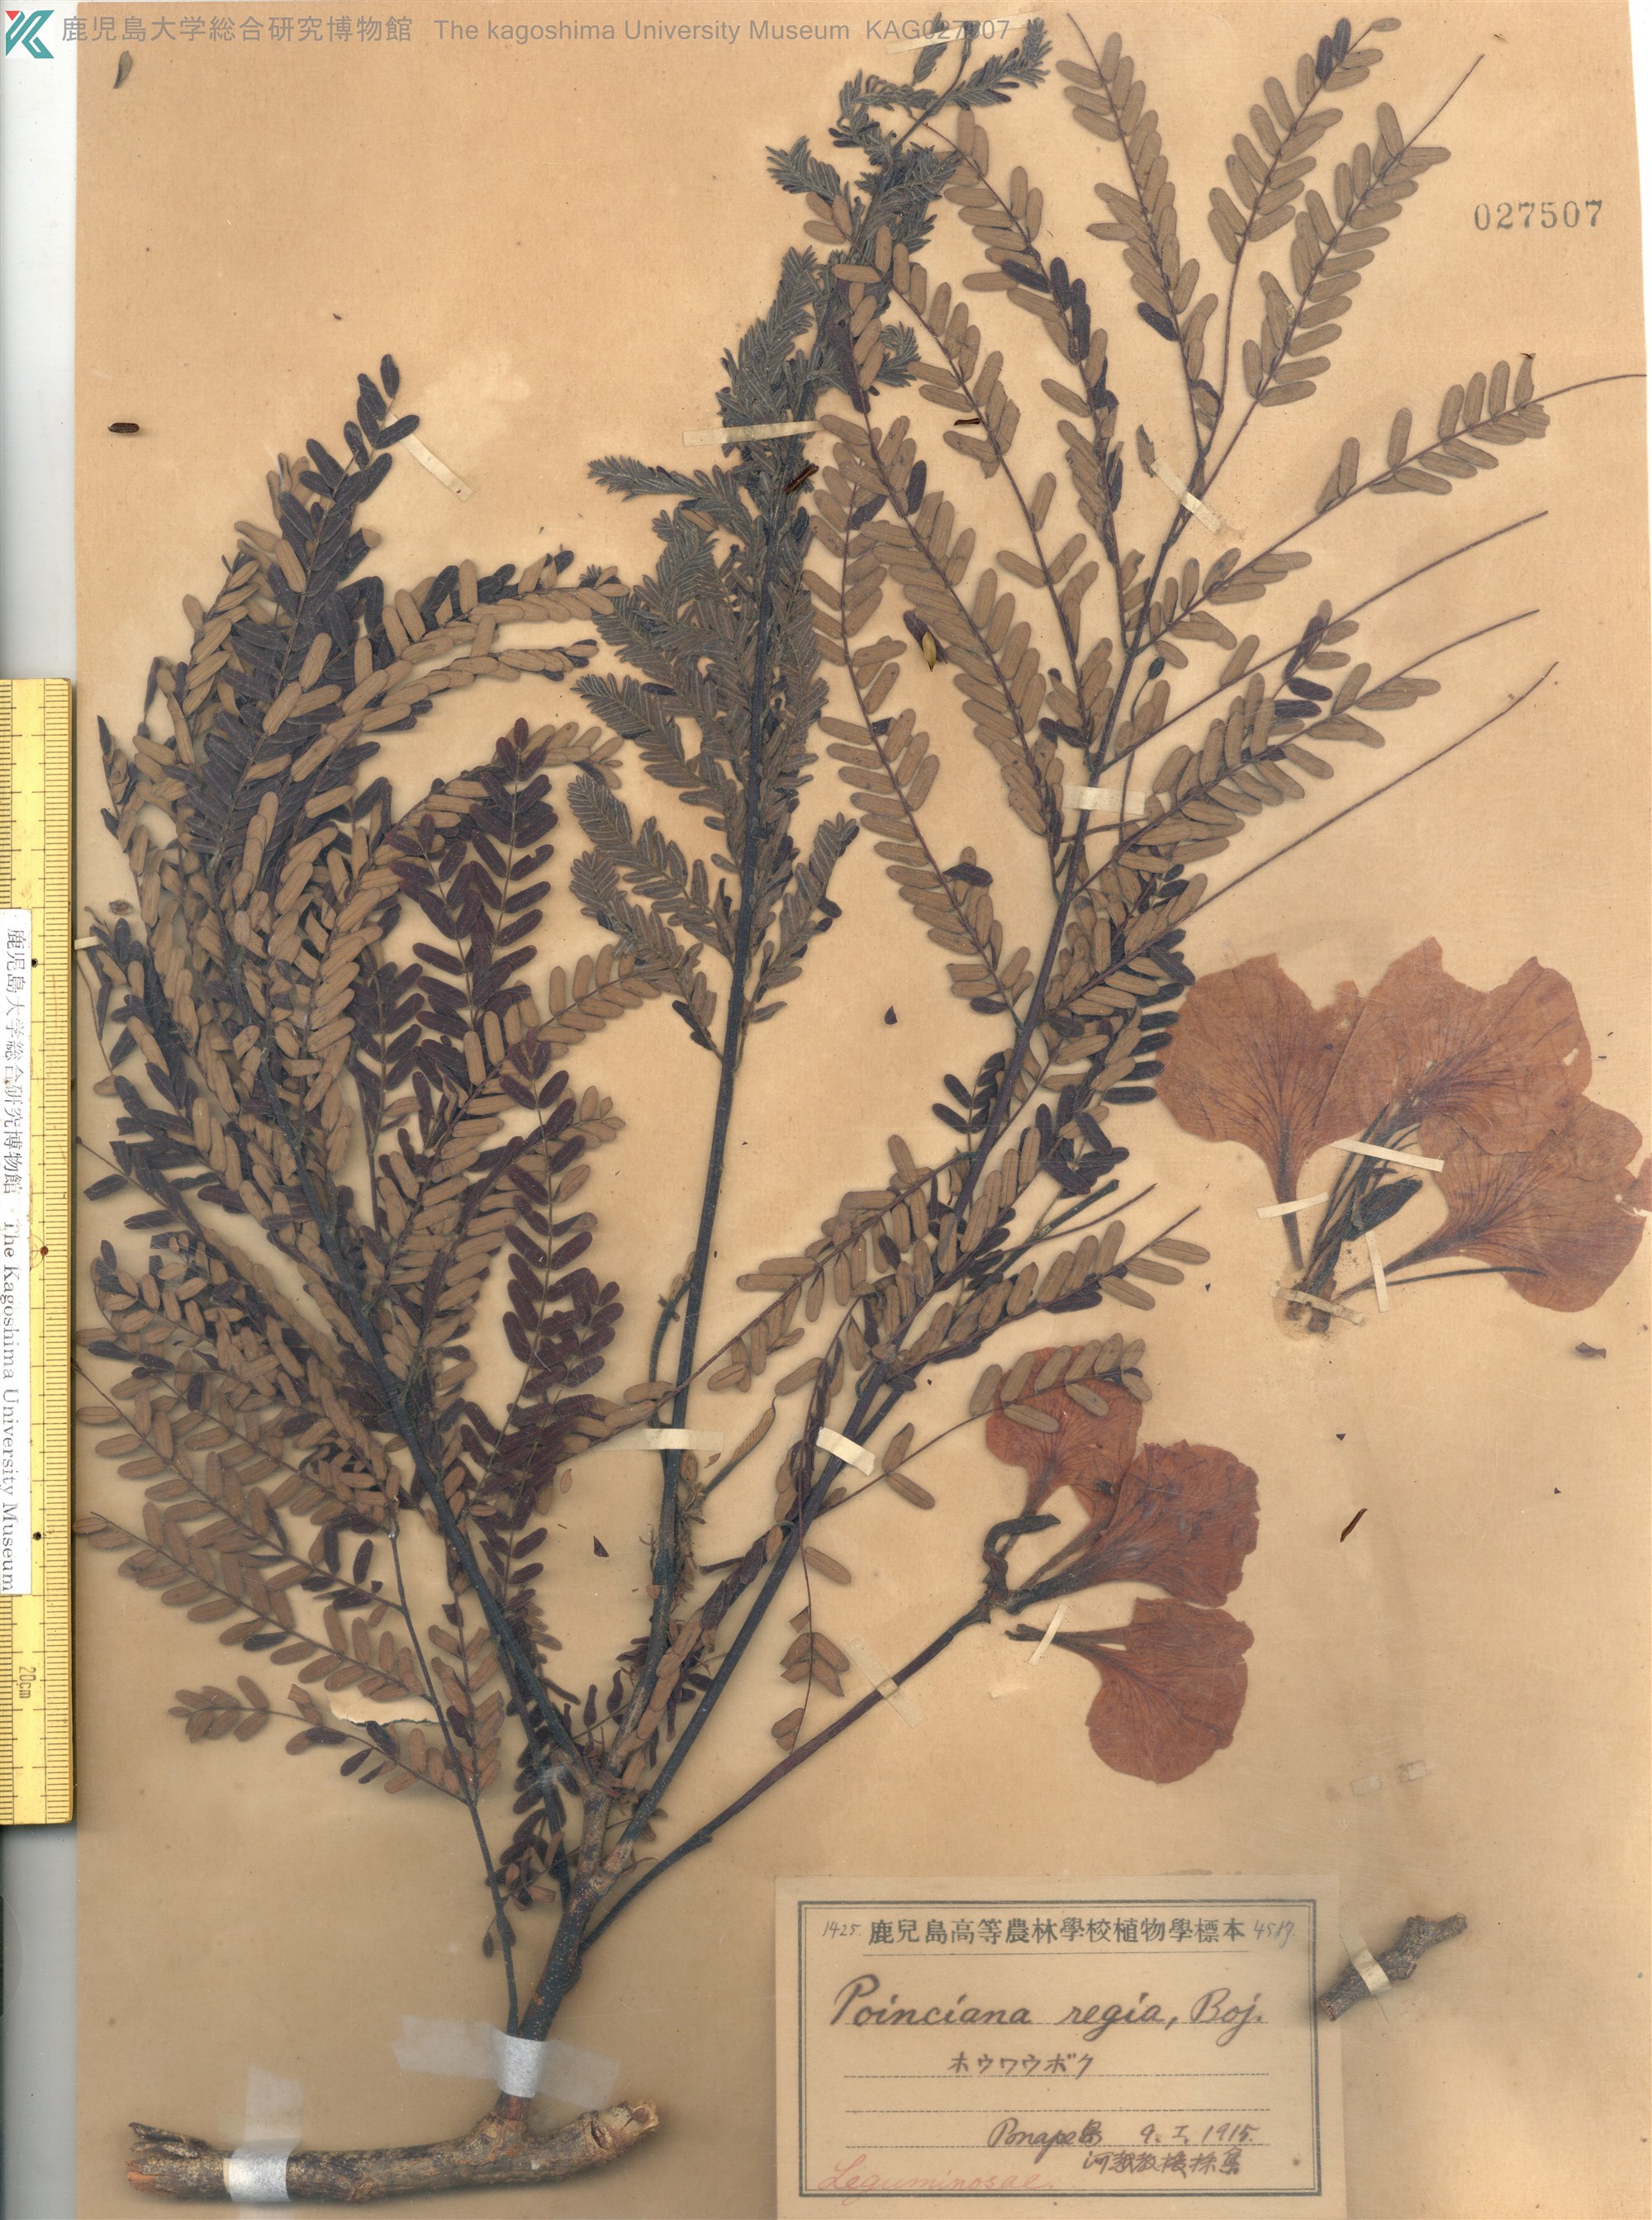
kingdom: Plantae
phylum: Tracheophyta
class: Magnoliopsida
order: Fabales
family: Fabaceae
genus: Delonix
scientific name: Delonix regia
